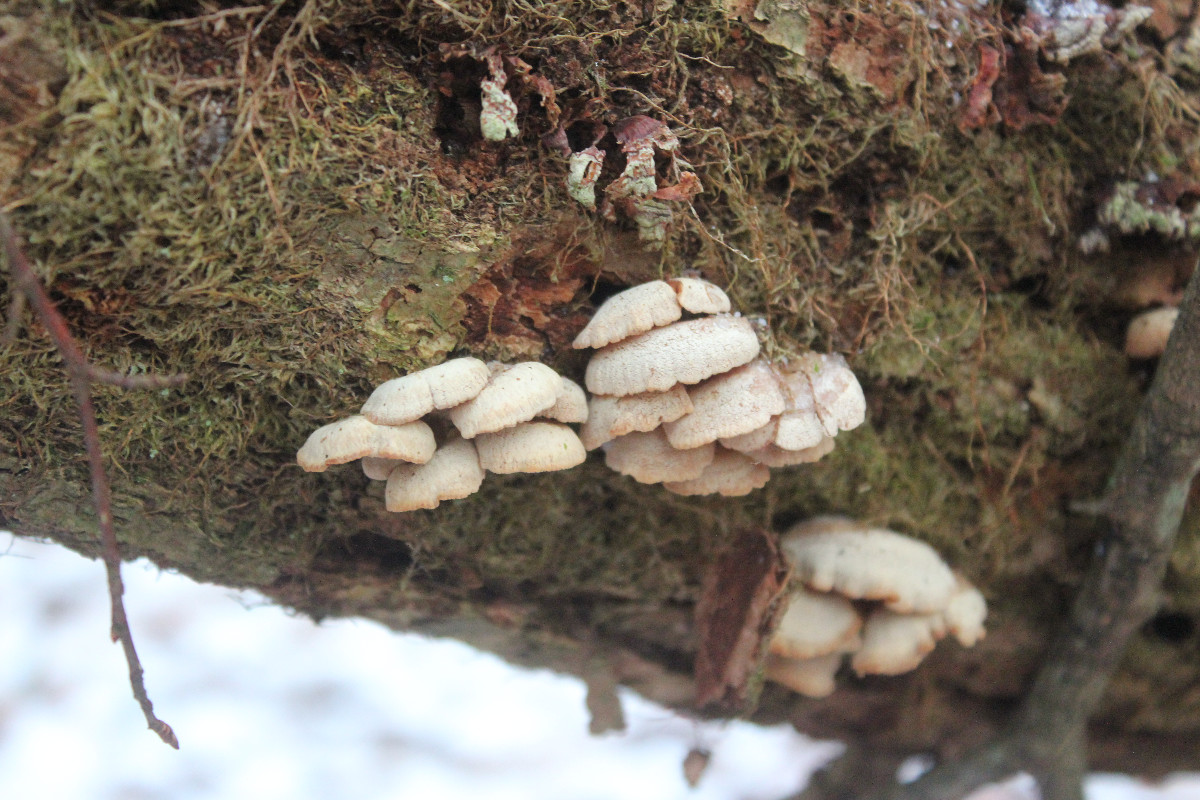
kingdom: Fungi
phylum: Basidiomycota
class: Agaricomycetes
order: Agaricales
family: Mycenaceae
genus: Panellus
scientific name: Panellus stipticus
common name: kliddet epaulethat
